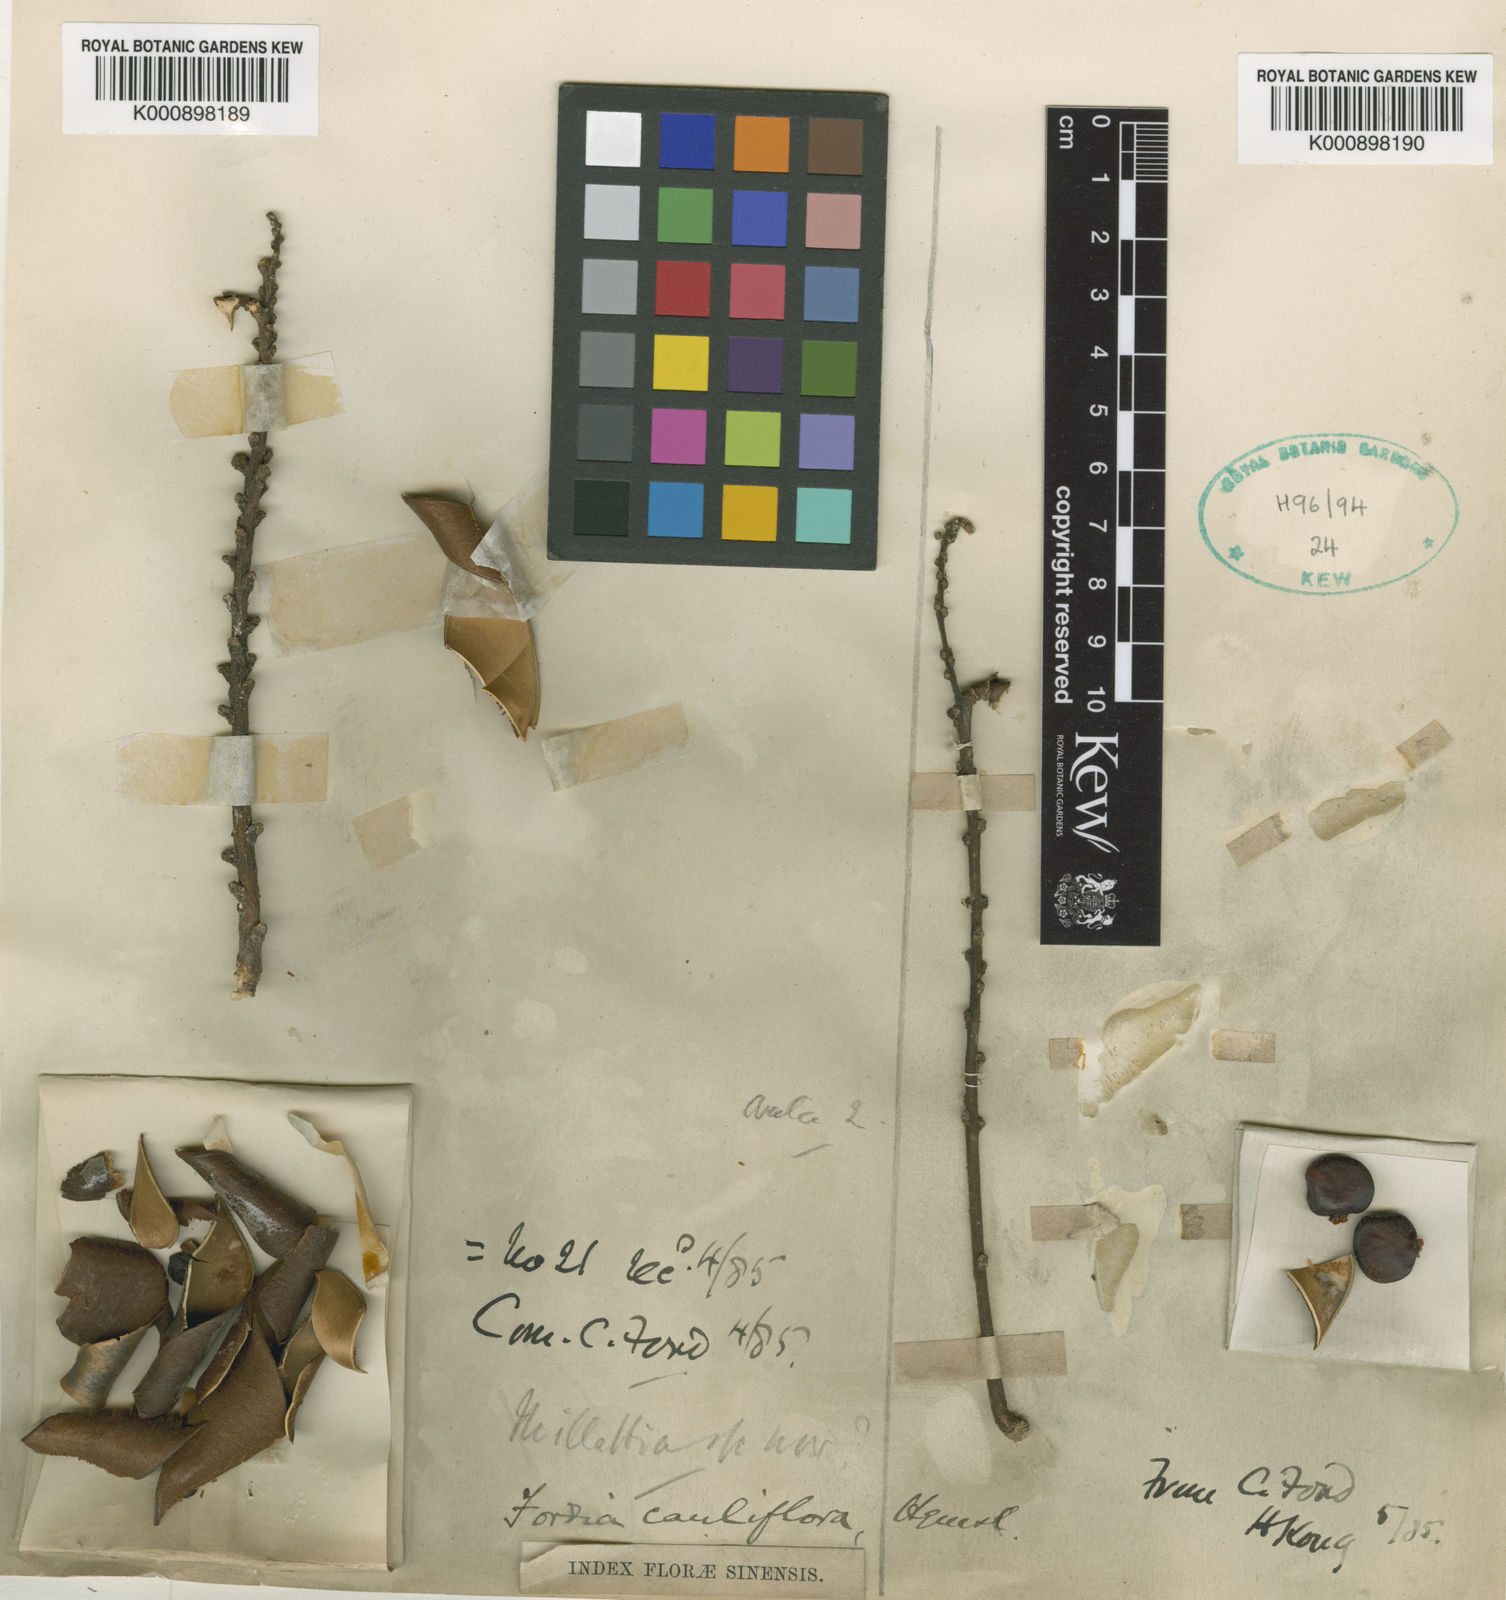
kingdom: Plantae
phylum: Tracheophyta
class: Magnoliopsida
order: Fabales
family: Fabaceae
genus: Fordia
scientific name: Fordia cauliflora
